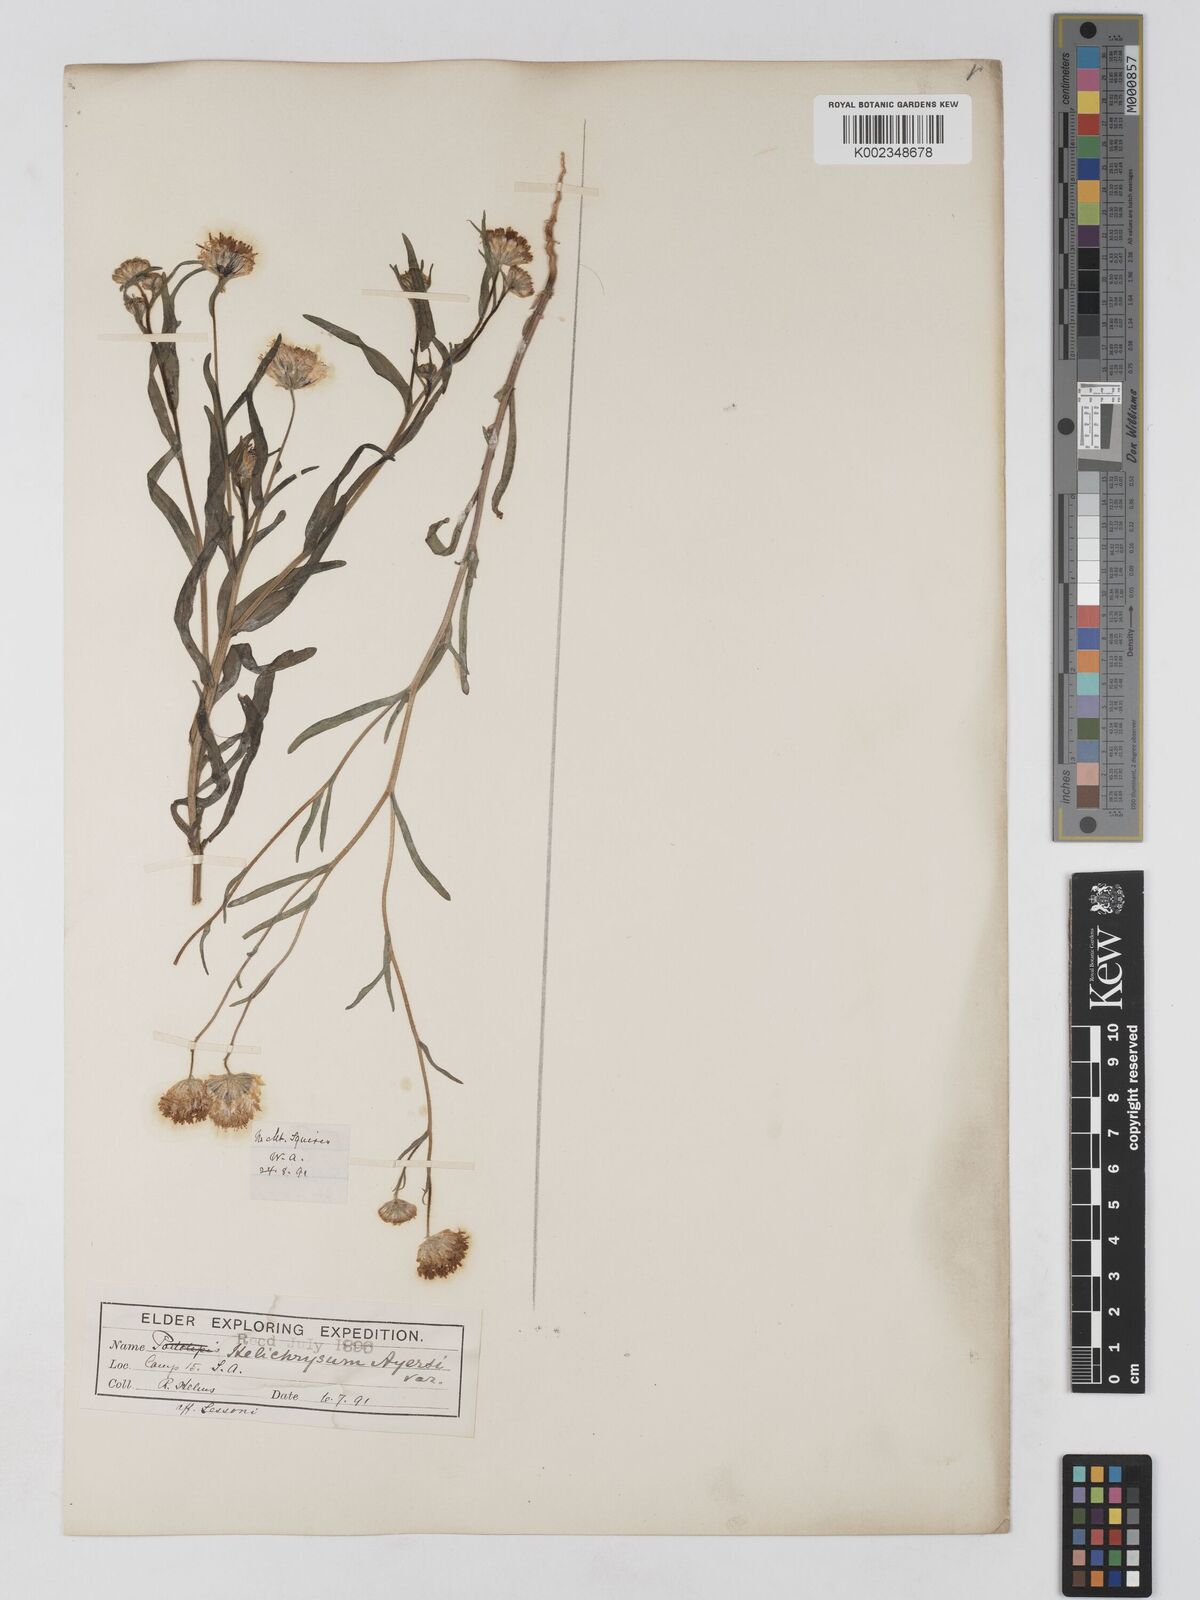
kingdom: Plantae
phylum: Tracheophyta
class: Magnoliopsida
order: Asterales
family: Asteraceae
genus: Schoenia
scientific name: Schoenia ayersii
